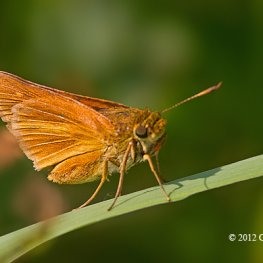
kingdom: Animalia
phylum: Arthropoda
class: Insecta
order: Lepidoptera
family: Hesperiidae
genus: Euphyes
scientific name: Euphyes dion
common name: Dion Skipper
